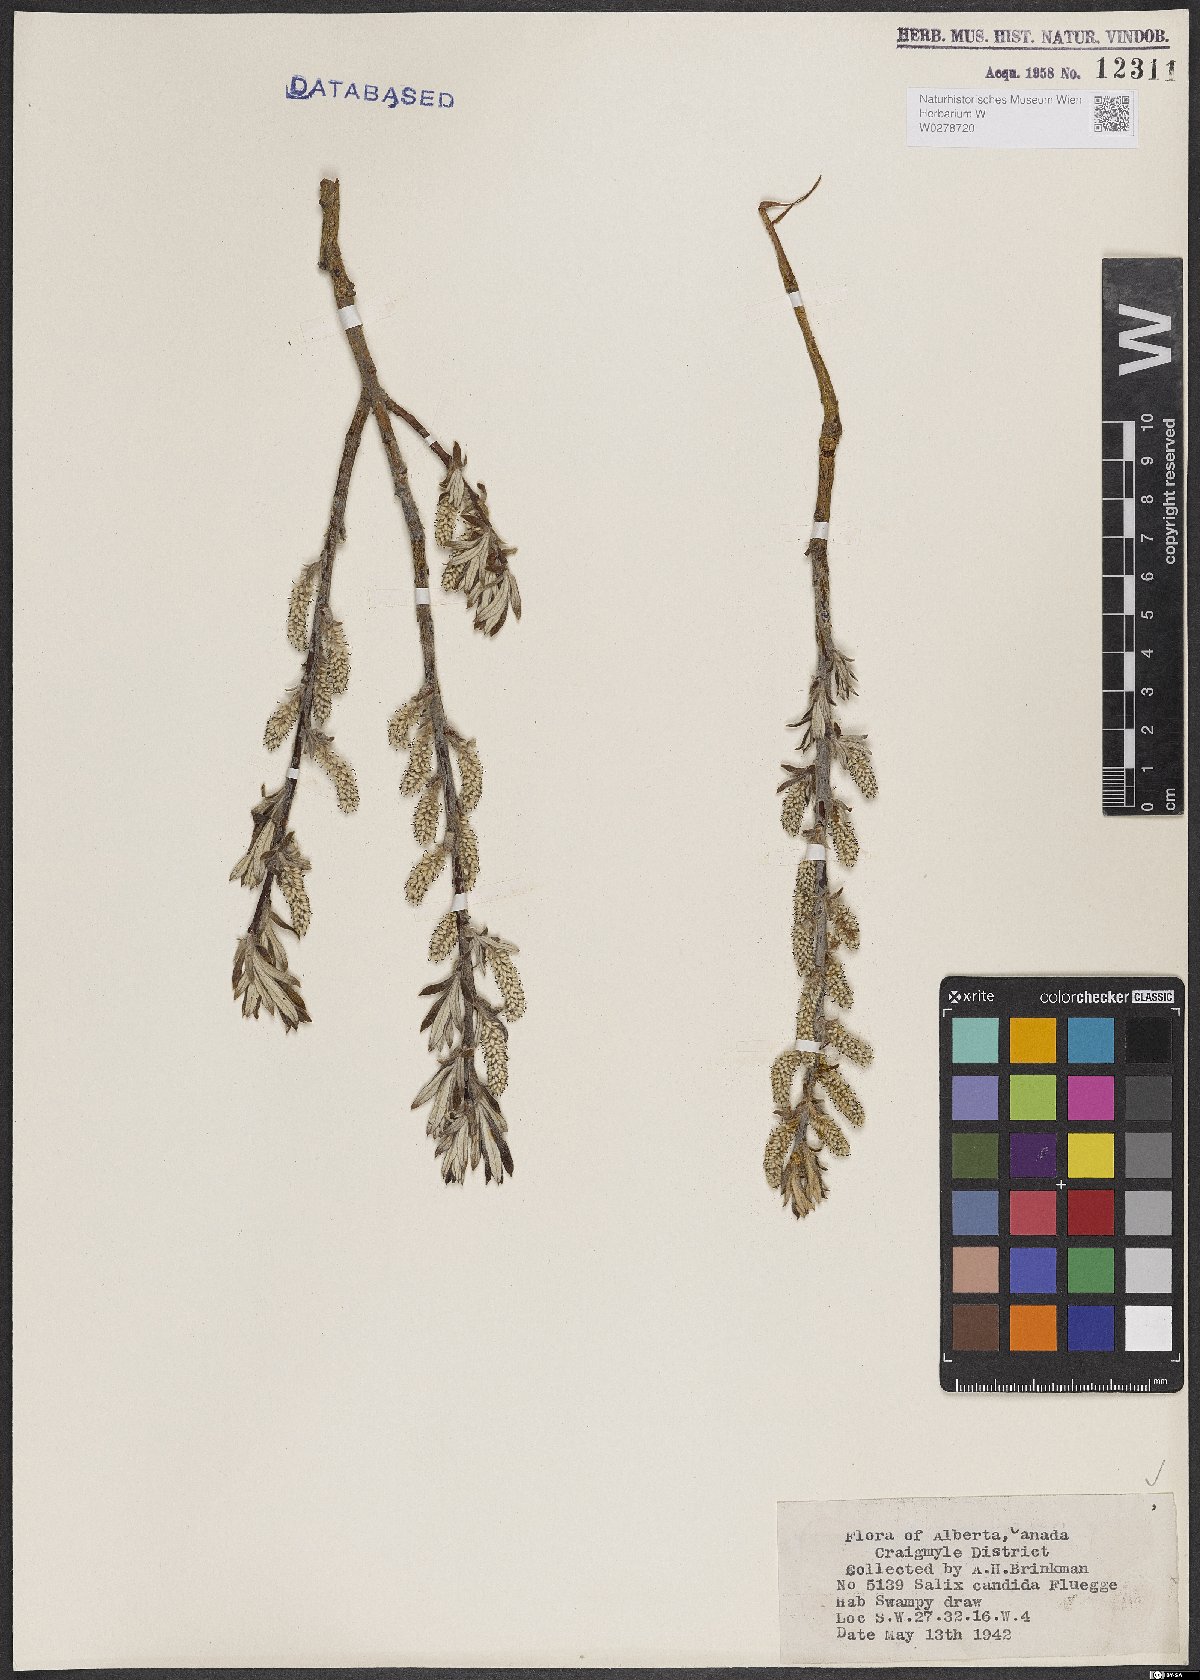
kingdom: Plantae
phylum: Tracheophyta
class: Magnoliopsida
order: Malpighiales
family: Salicaceae
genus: Salix
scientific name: Salix candida
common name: Hoary willow
